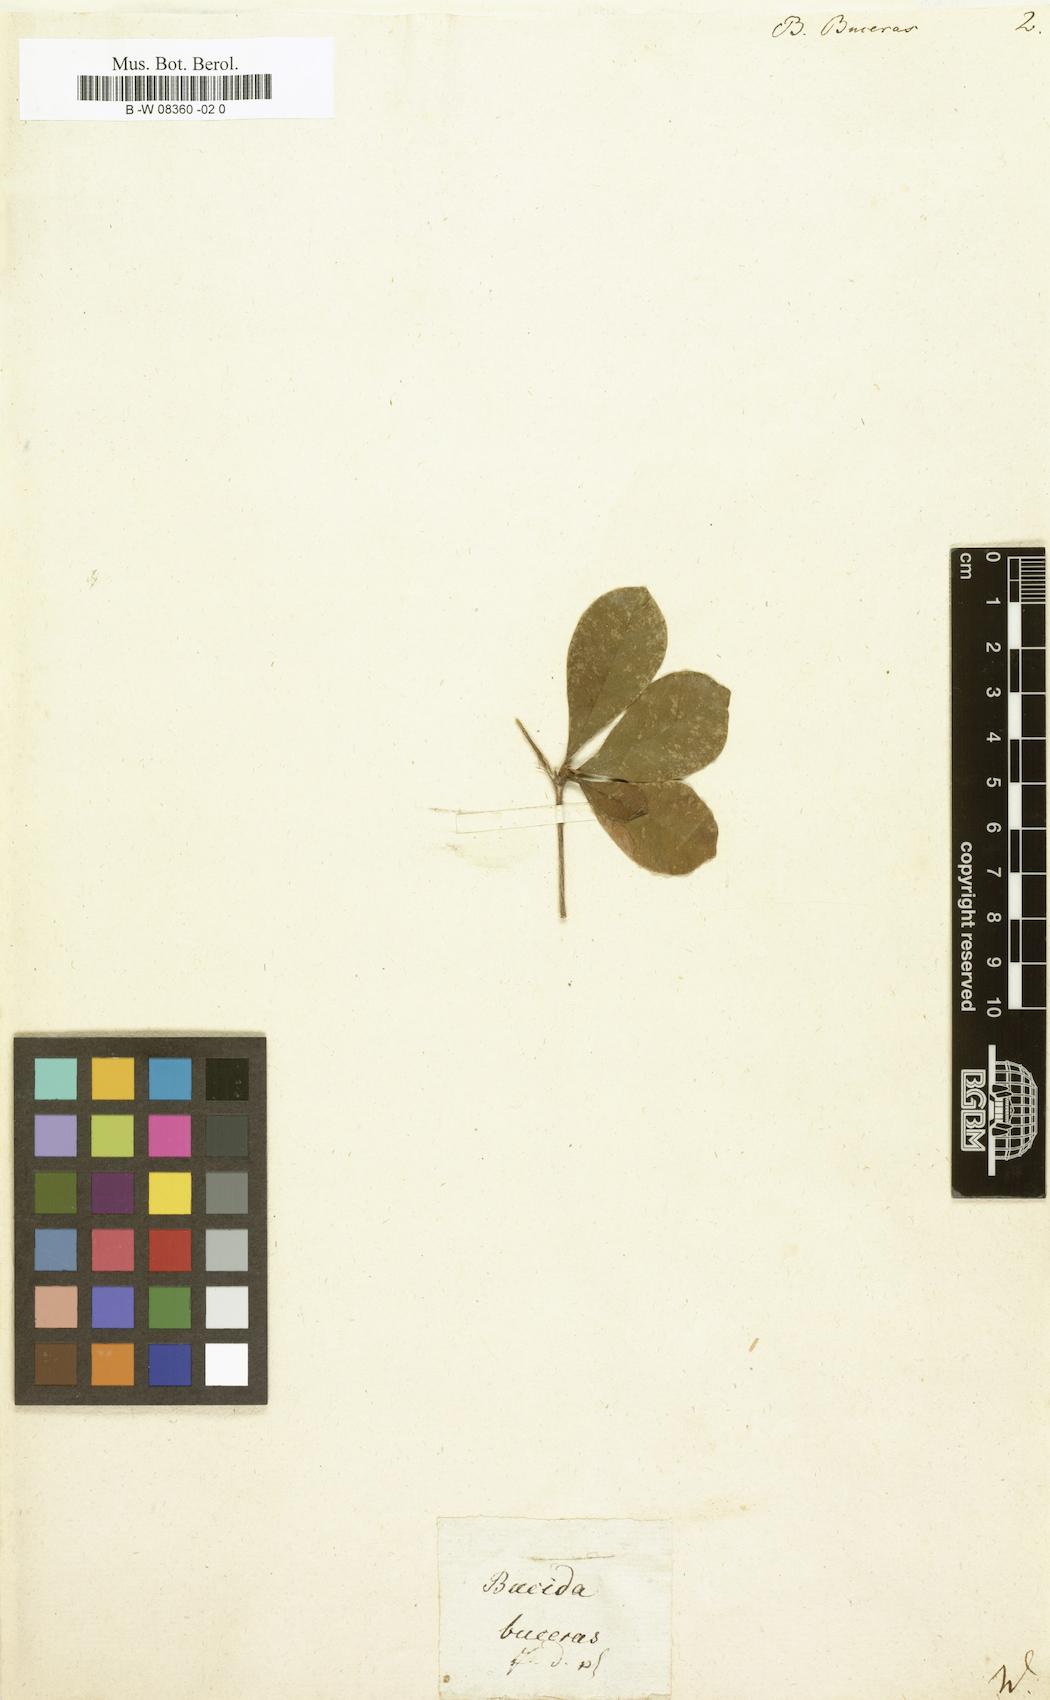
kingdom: Plantae
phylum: Tracheophyta
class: Magnoliopsida
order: Myrtales
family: Combretaceae
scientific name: Combretaceae
